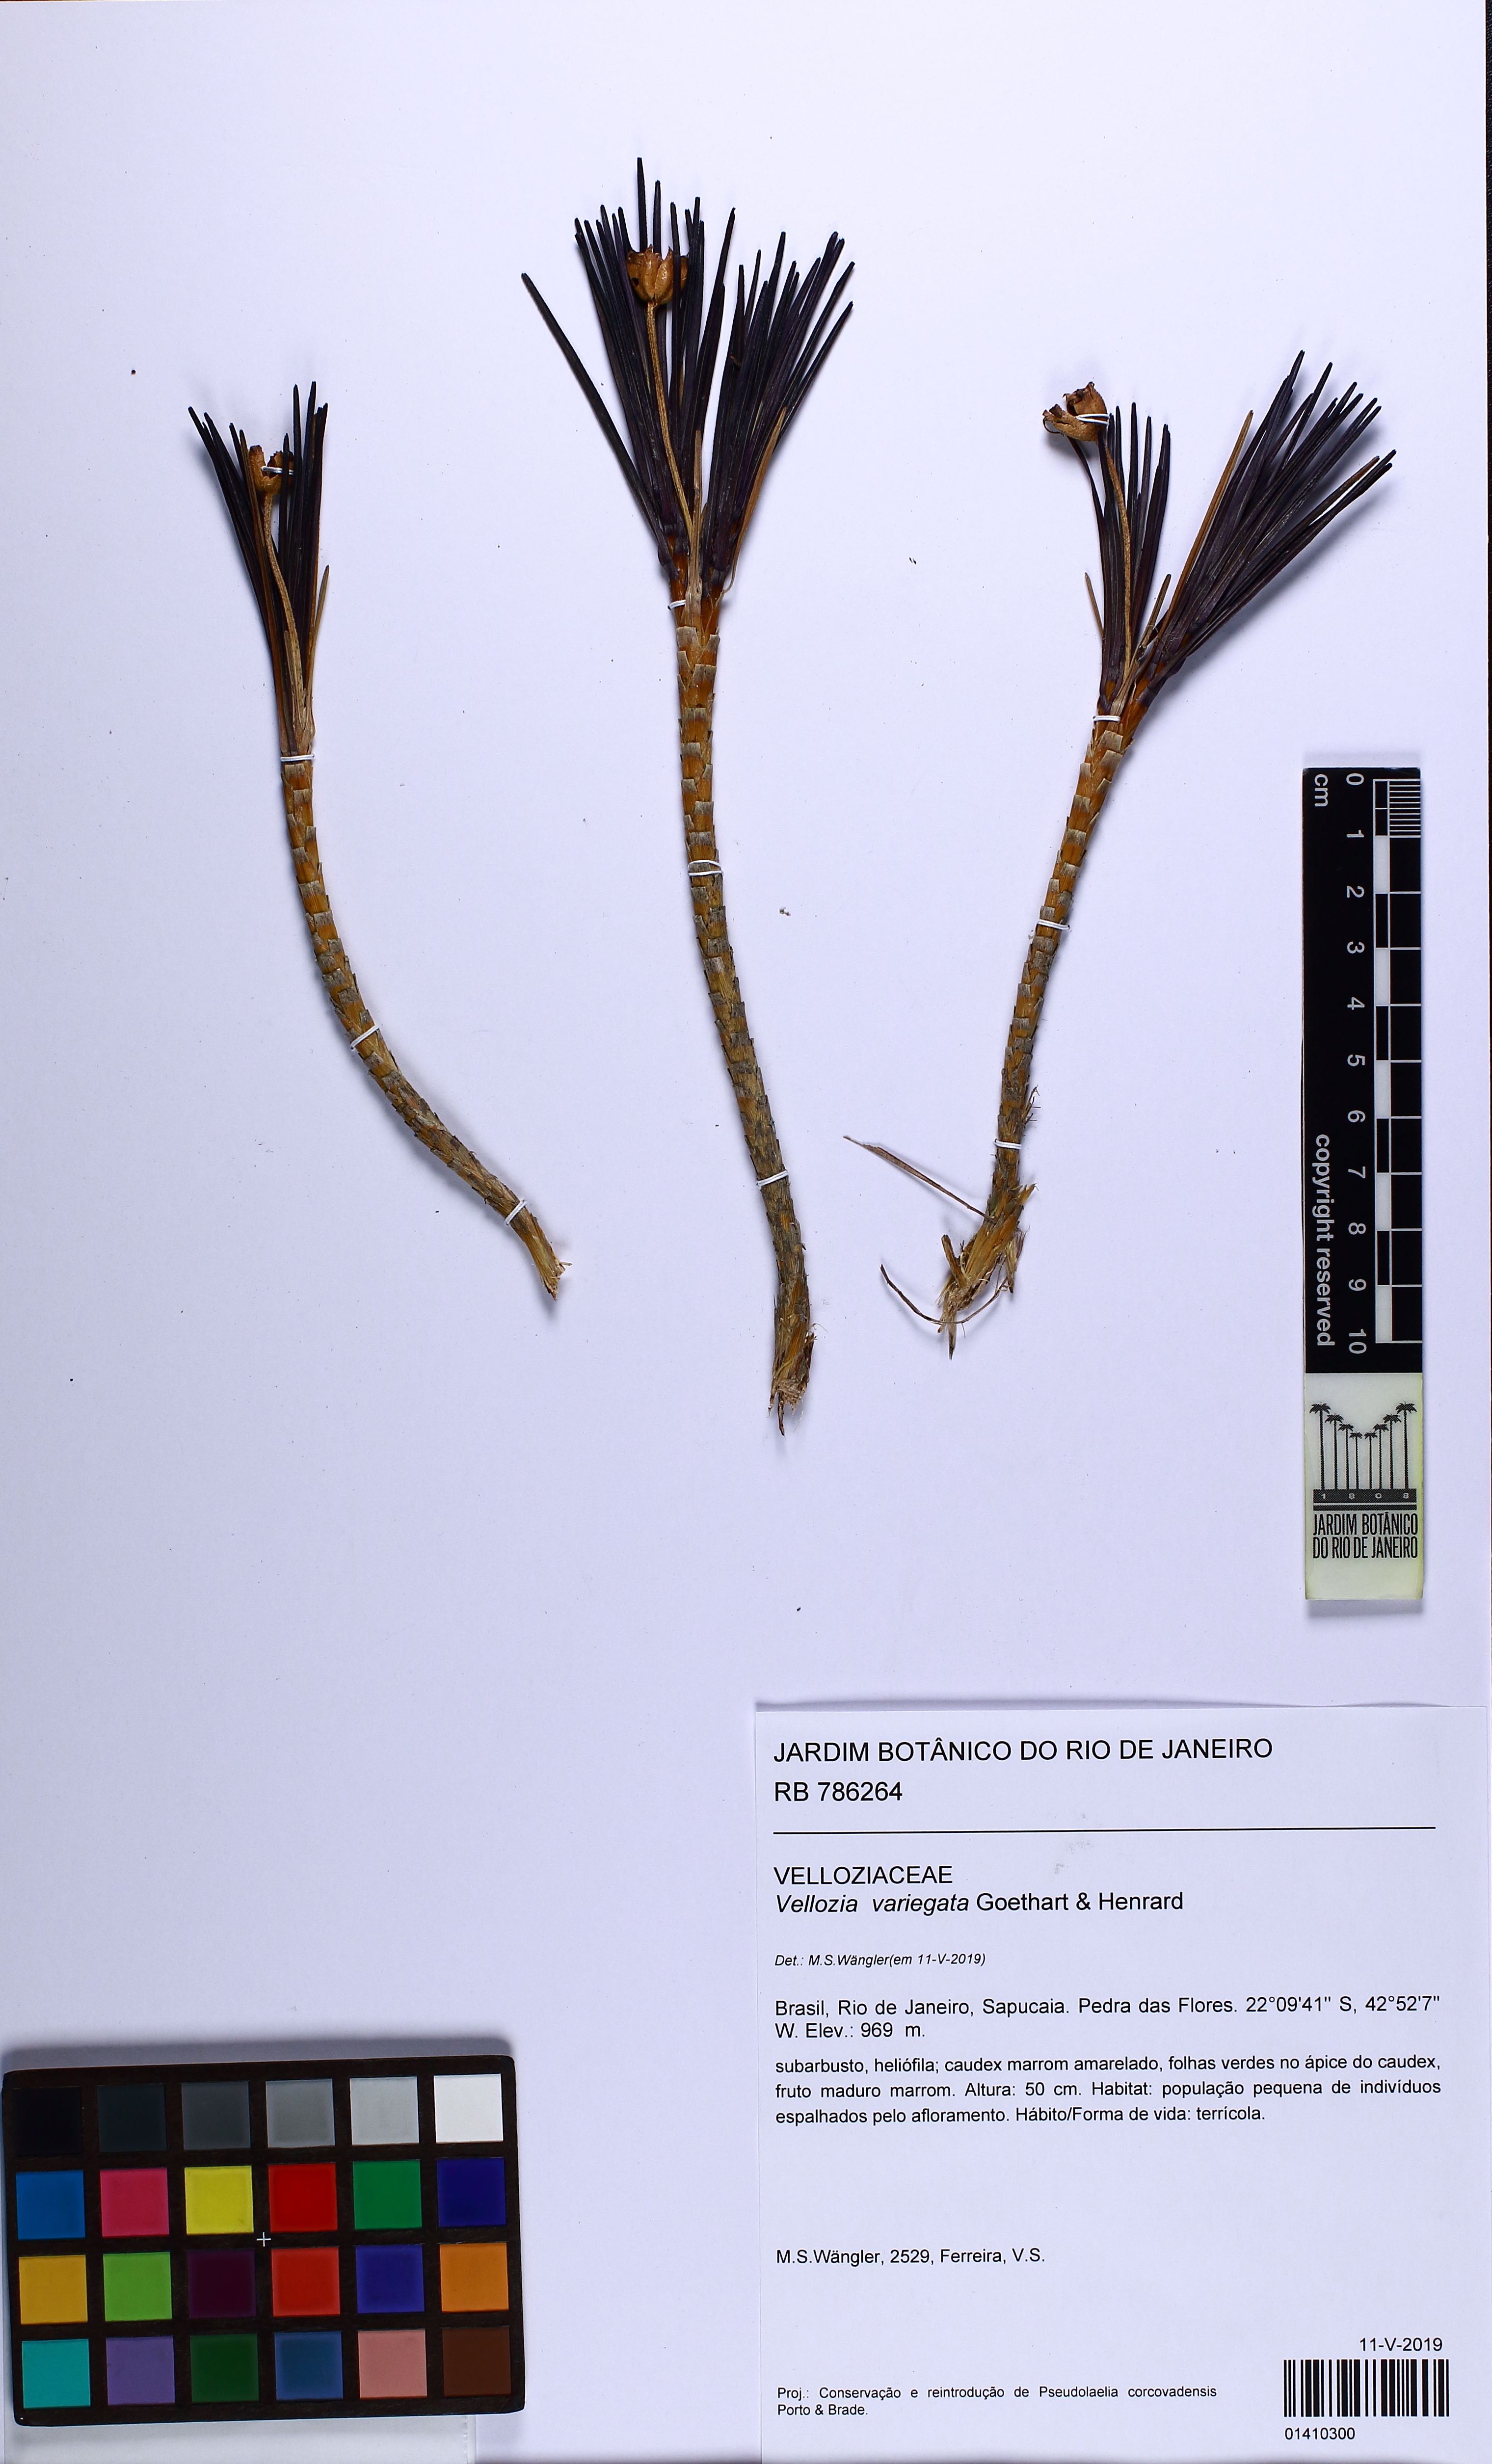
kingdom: Plantae
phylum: Tracheophyta
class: Liliopsida
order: Pandanales
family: Velloziaceae
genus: Vellozia
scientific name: Vellozia variegata
